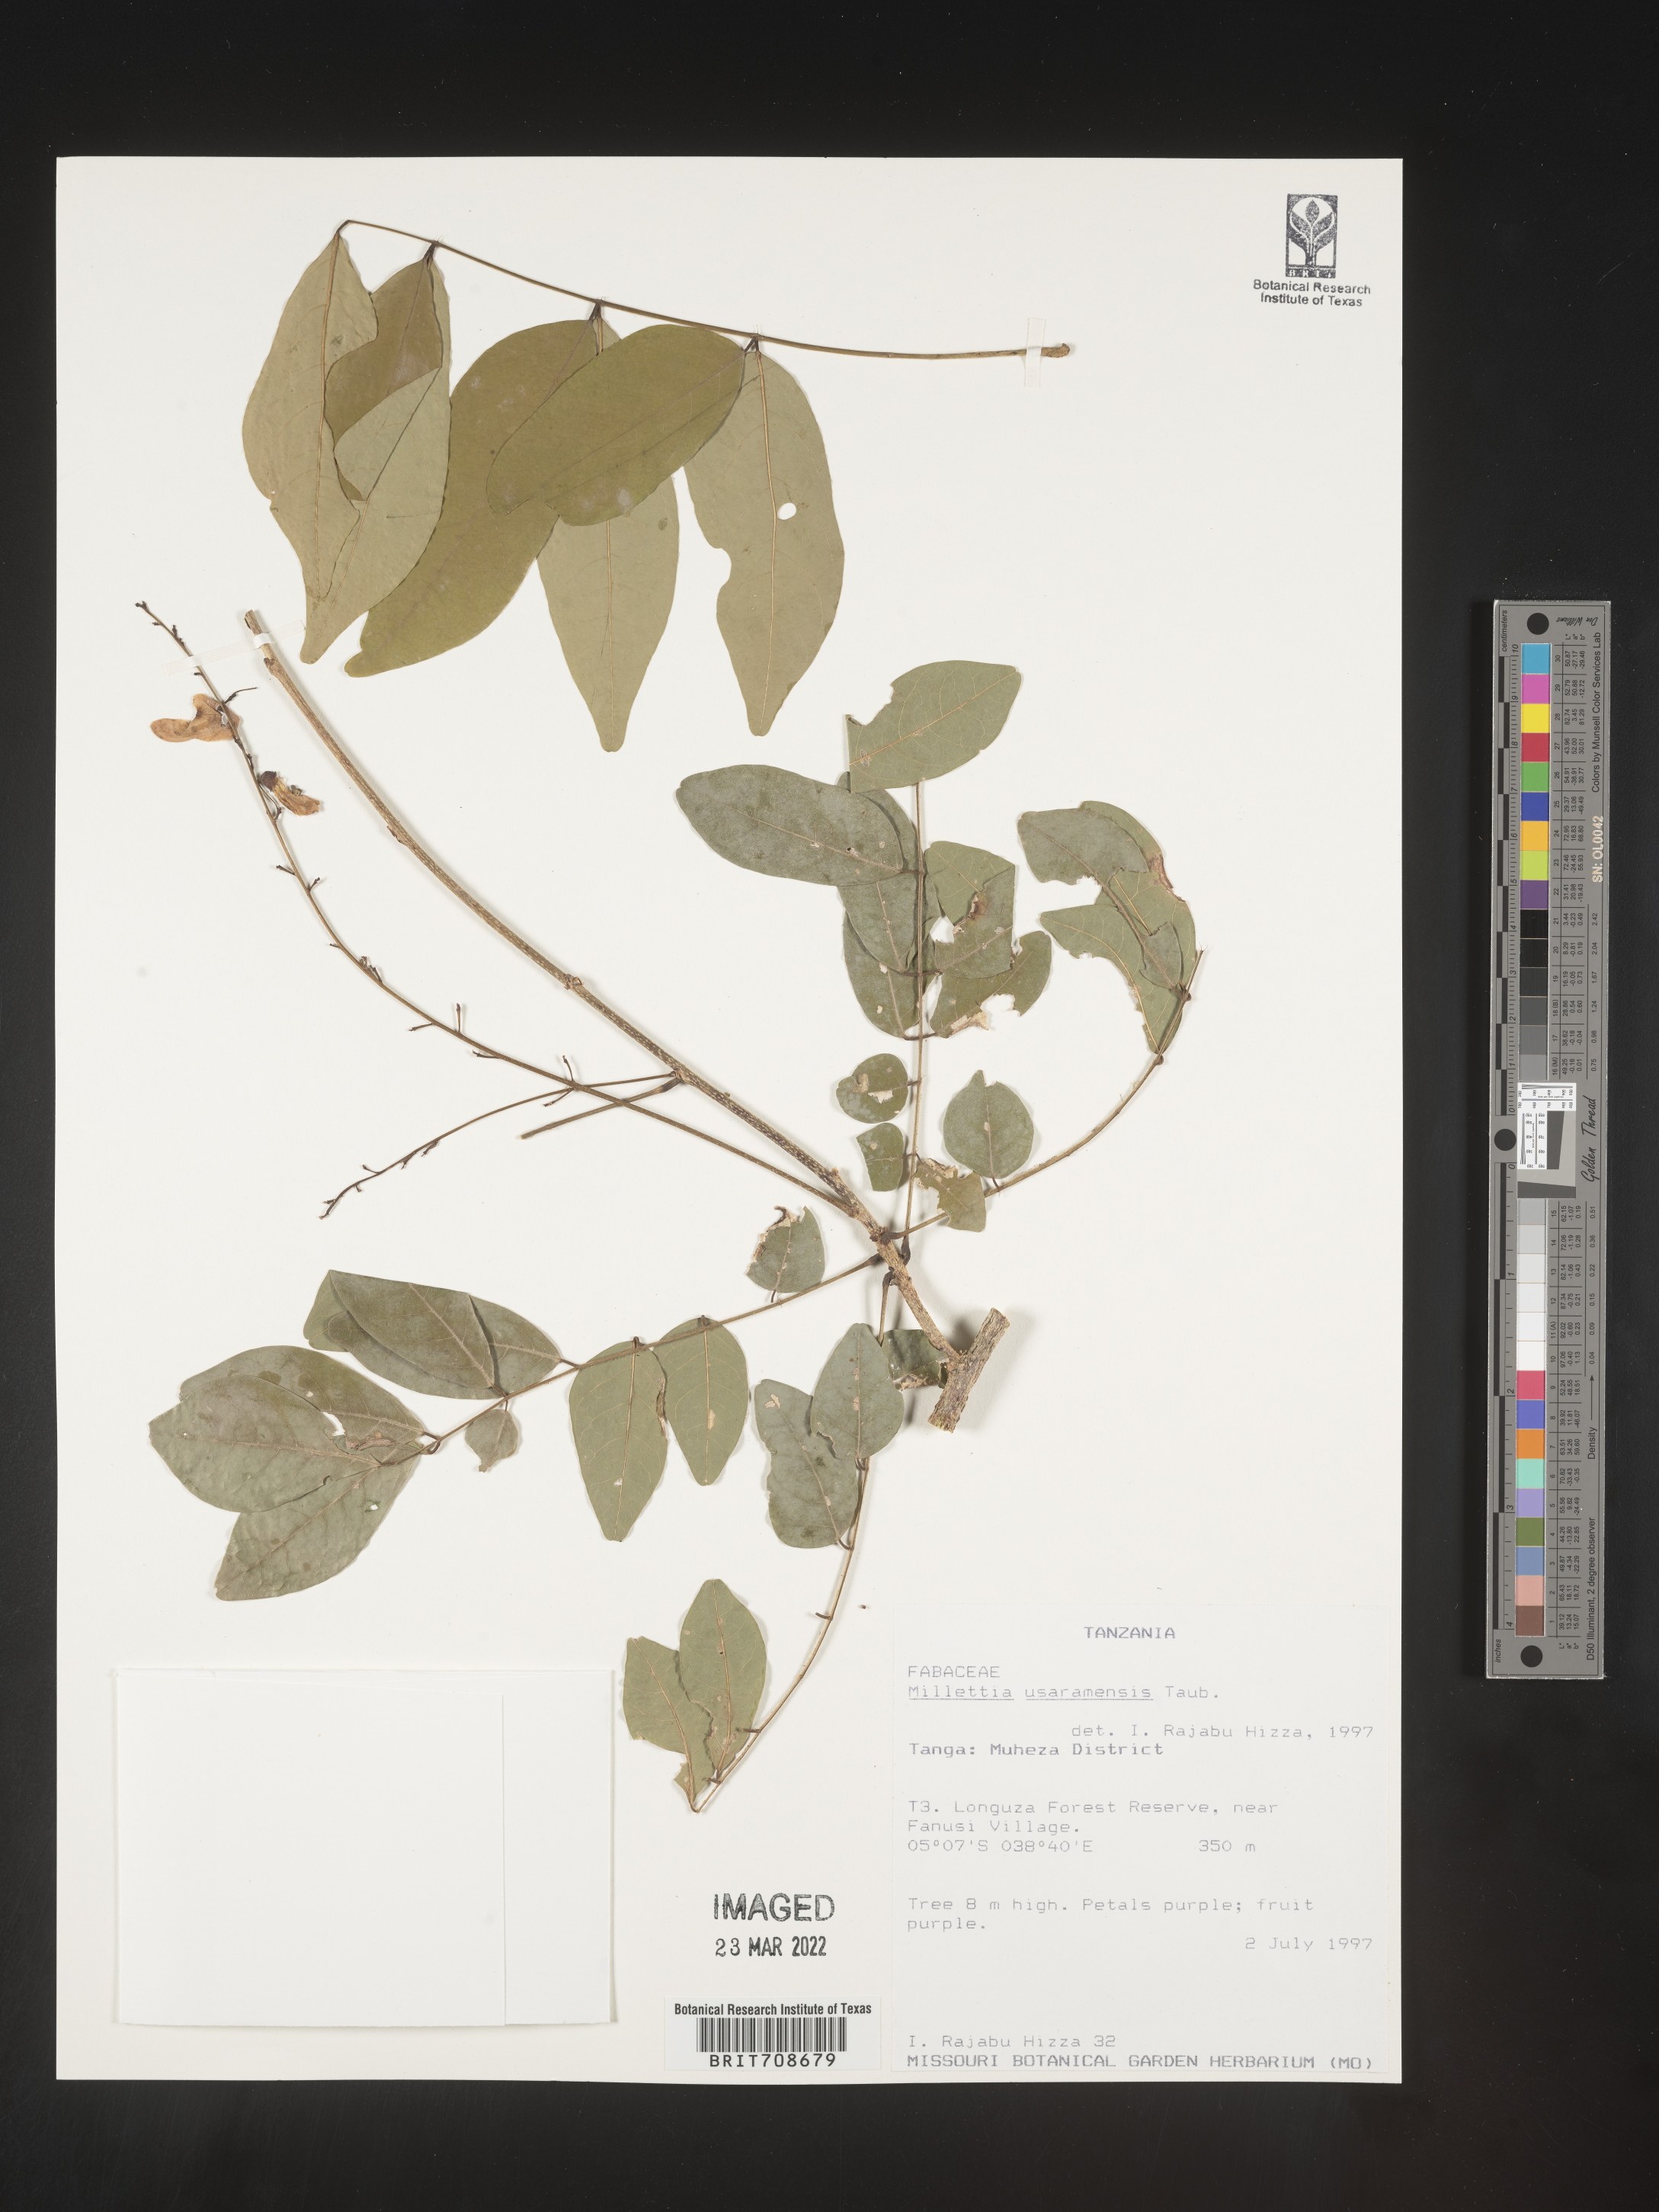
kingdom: Plantae
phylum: Tracheophyta
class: Magnoliopsida
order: Fabales
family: Fabaceae
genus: Millettia
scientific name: Millettia
